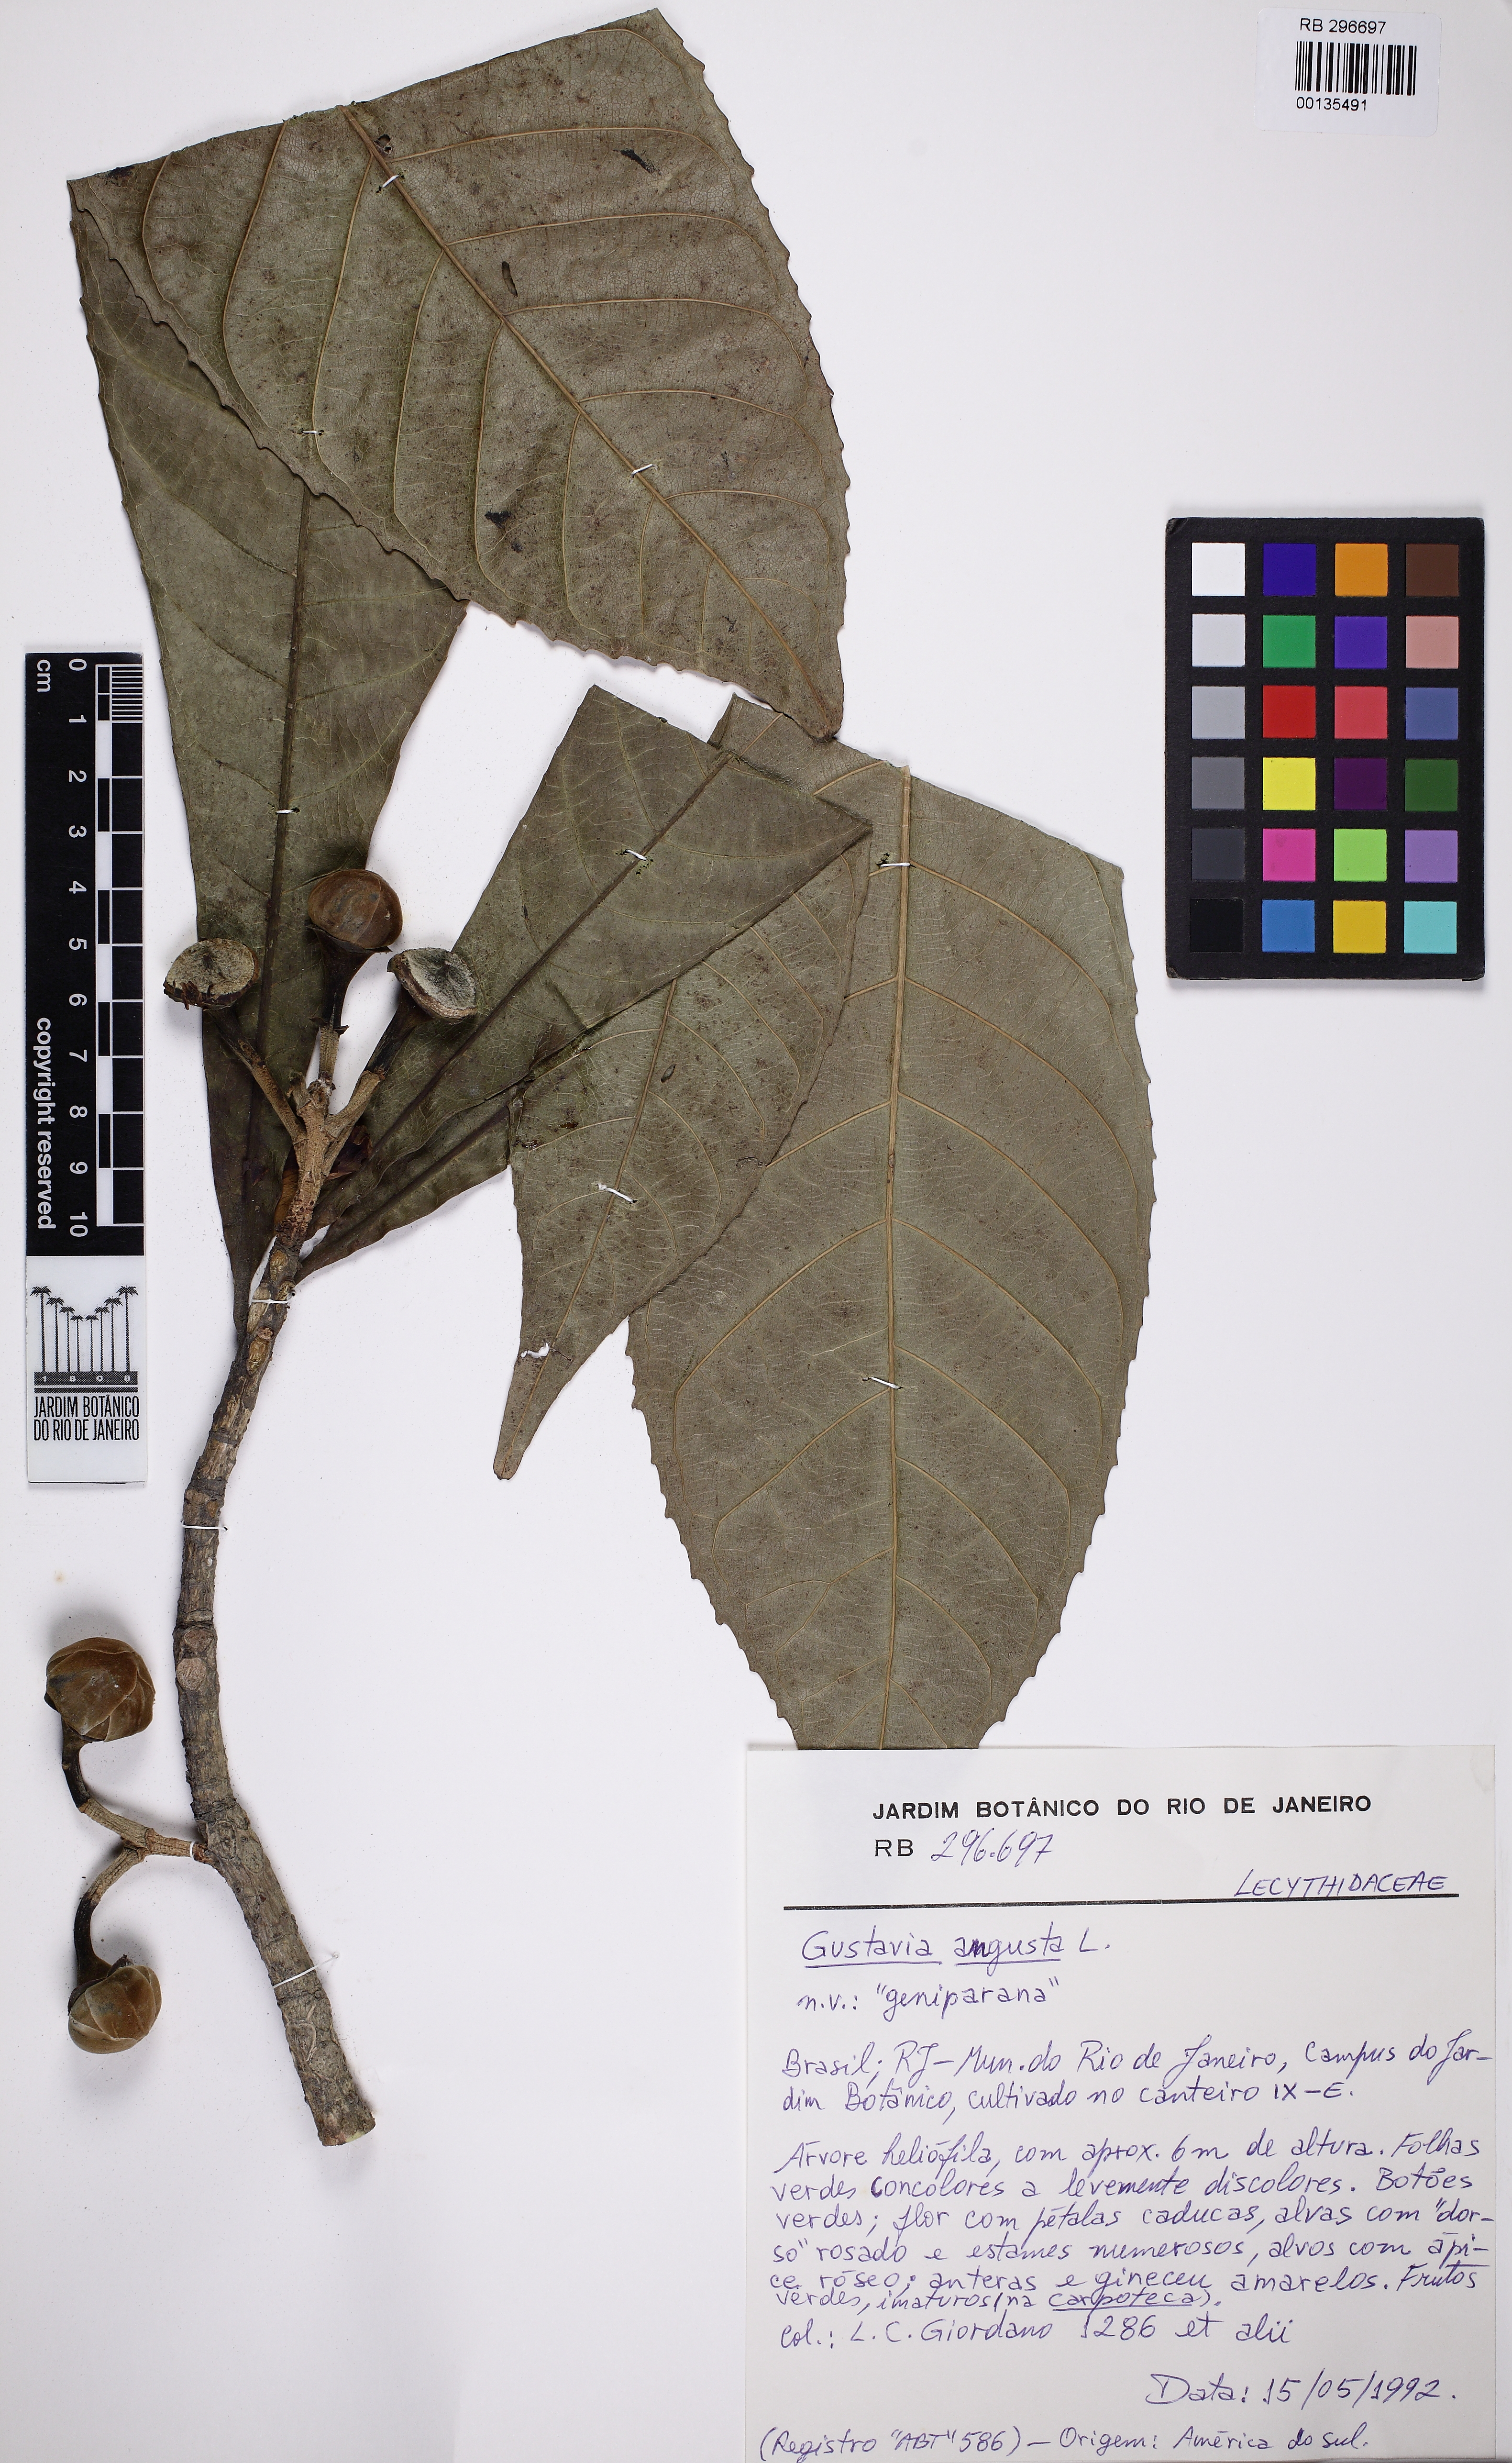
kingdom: Plantae
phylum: Tracheophyta
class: Magnoliopsida
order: Ericales
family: Lecythidaceae
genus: Gustavia
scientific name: Gustavia augusta
